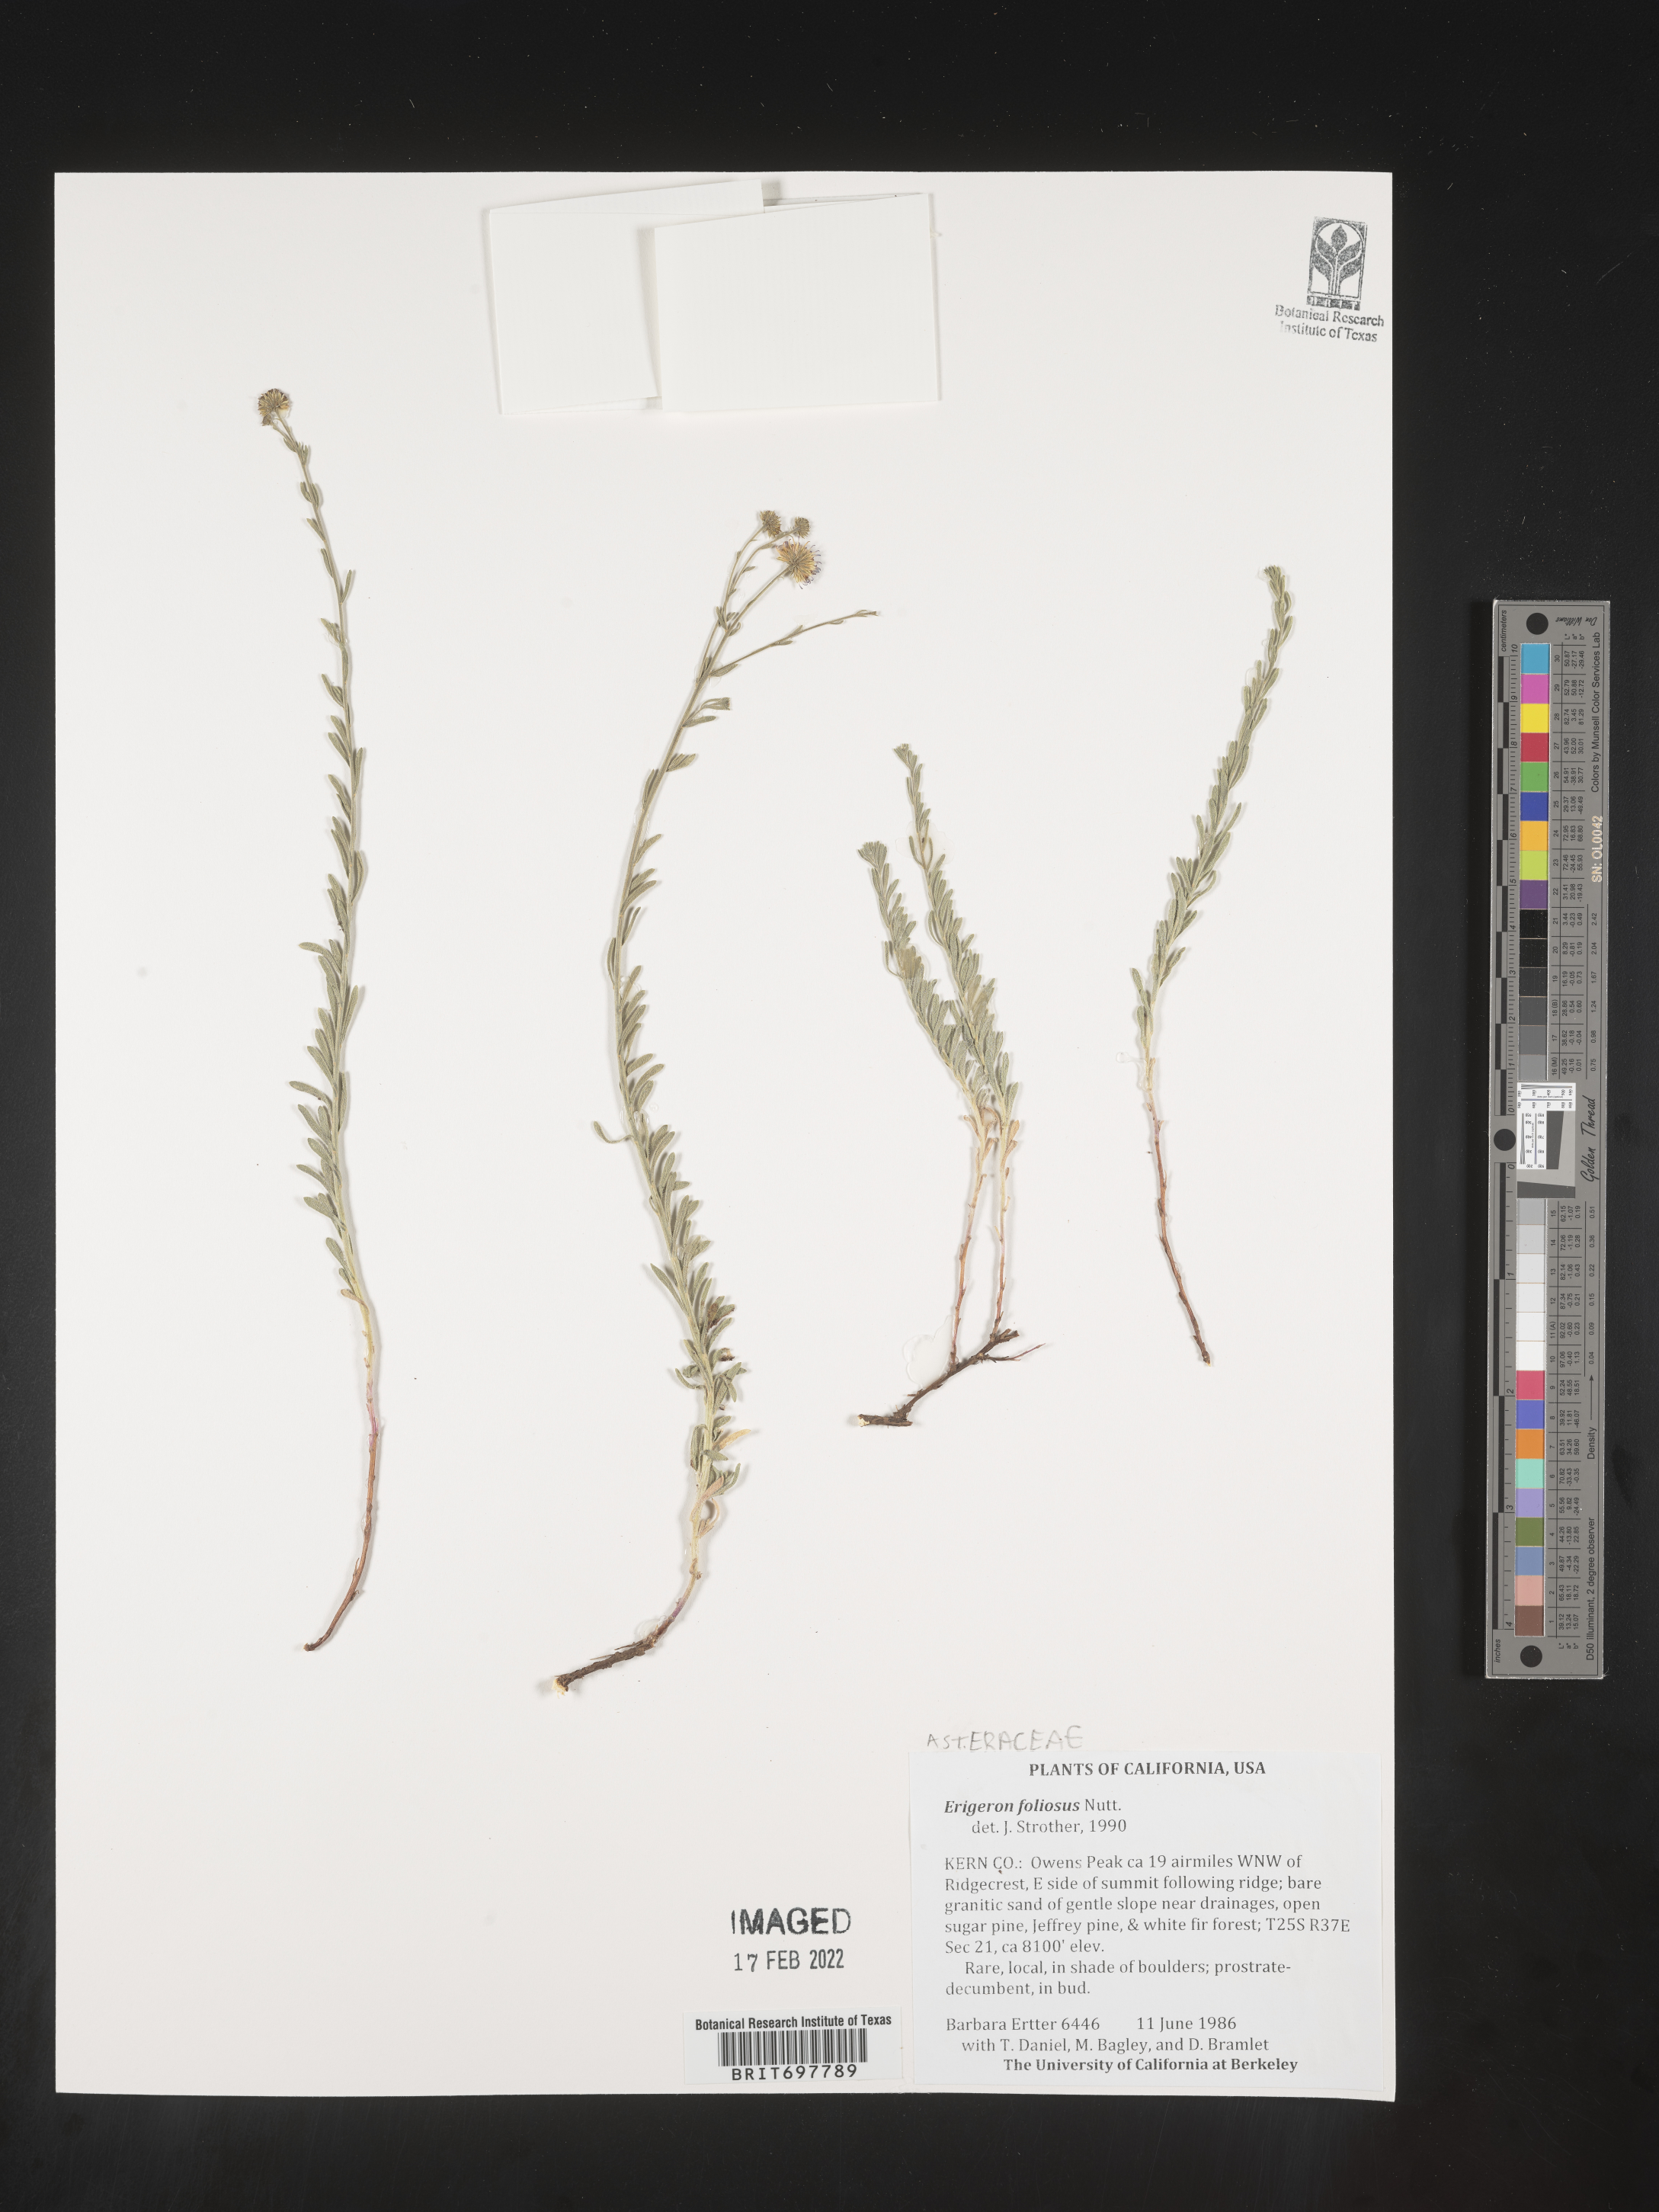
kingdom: Plantae
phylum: Tracheophyta
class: Magnoliopsida
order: Asterales
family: Asteraceae
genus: Erigeron
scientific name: Erigeron foliosus
